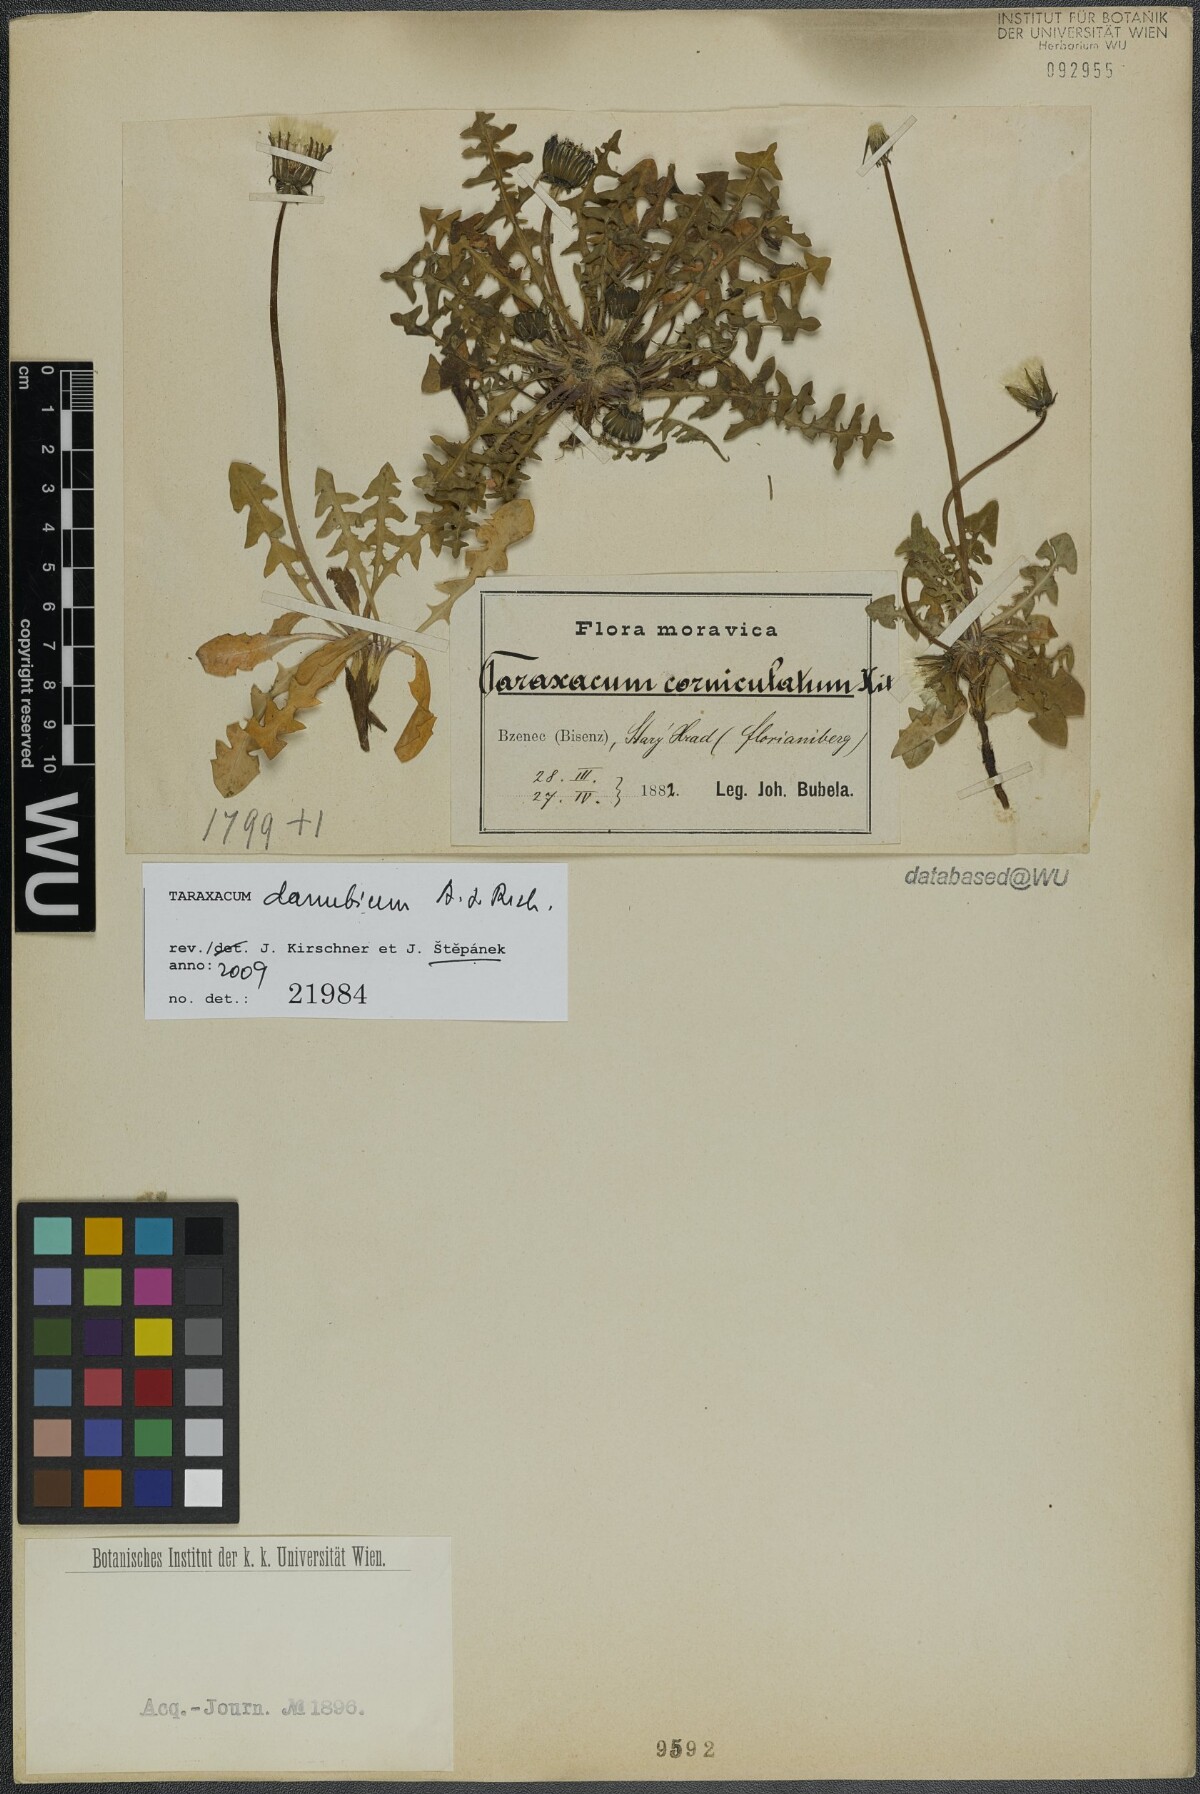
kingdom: Plantae
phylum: Tracheophyta
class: Magnoliopsida
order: Asterales
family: Asteraceae
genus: Taraxacum
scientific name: Taraxacum danubium
